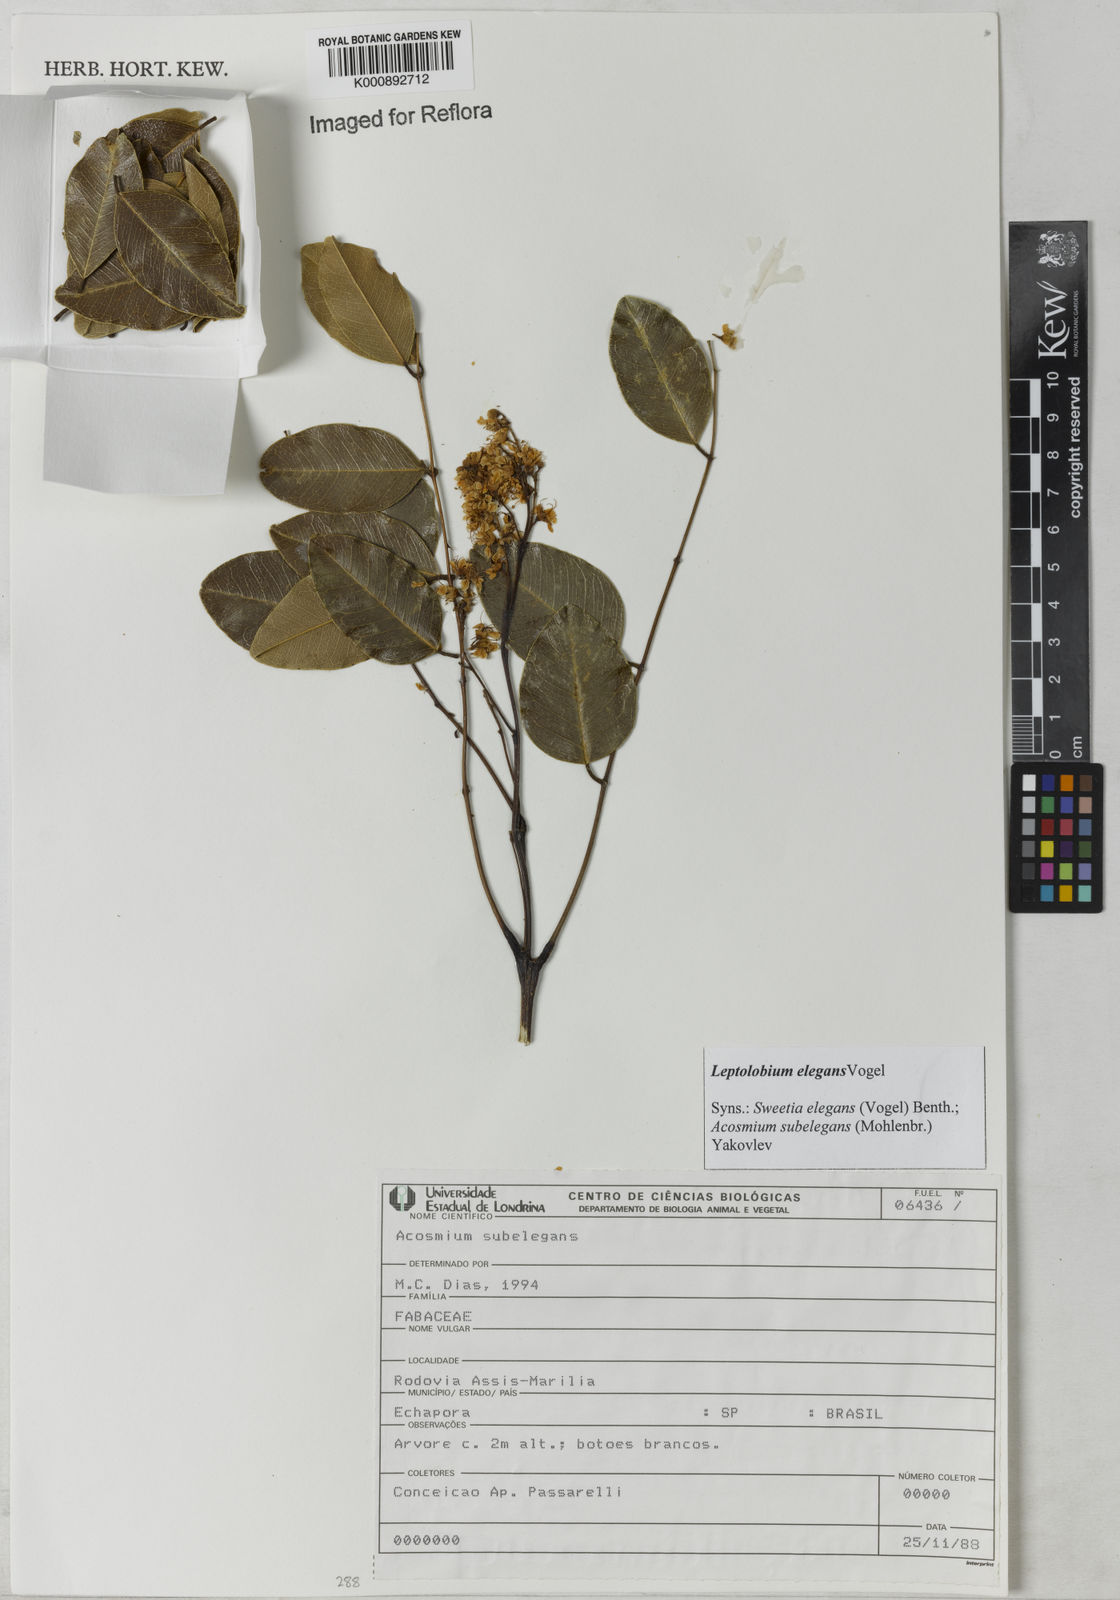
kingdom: Plantae
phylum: Tracheophyta
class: Magnoliopsida
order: Fabales
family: Fabaceae
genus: Leptolobium
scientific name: Leptolobium elegans
